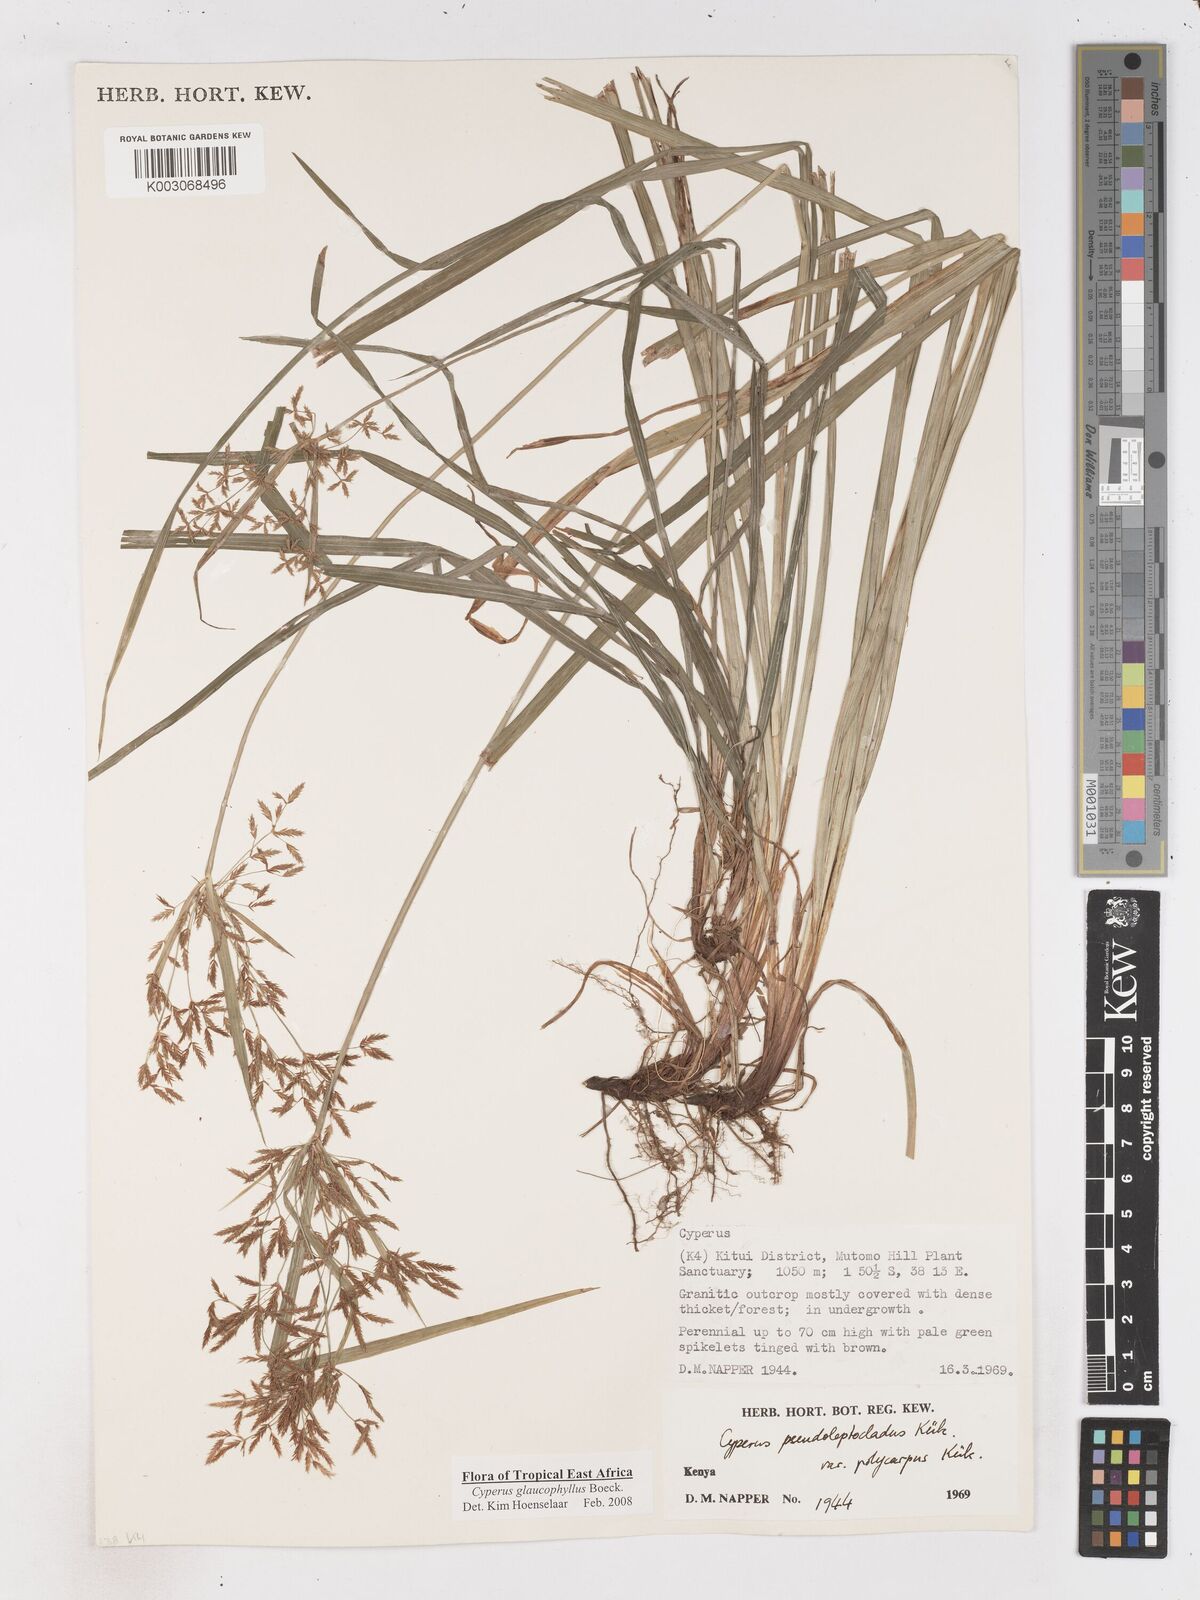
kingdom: Plantae
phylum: Tracheophyta
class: Liliopsida
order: Poales
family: Cyperaceae
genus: Cyperus
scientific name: Cyperus glaucophyllus
